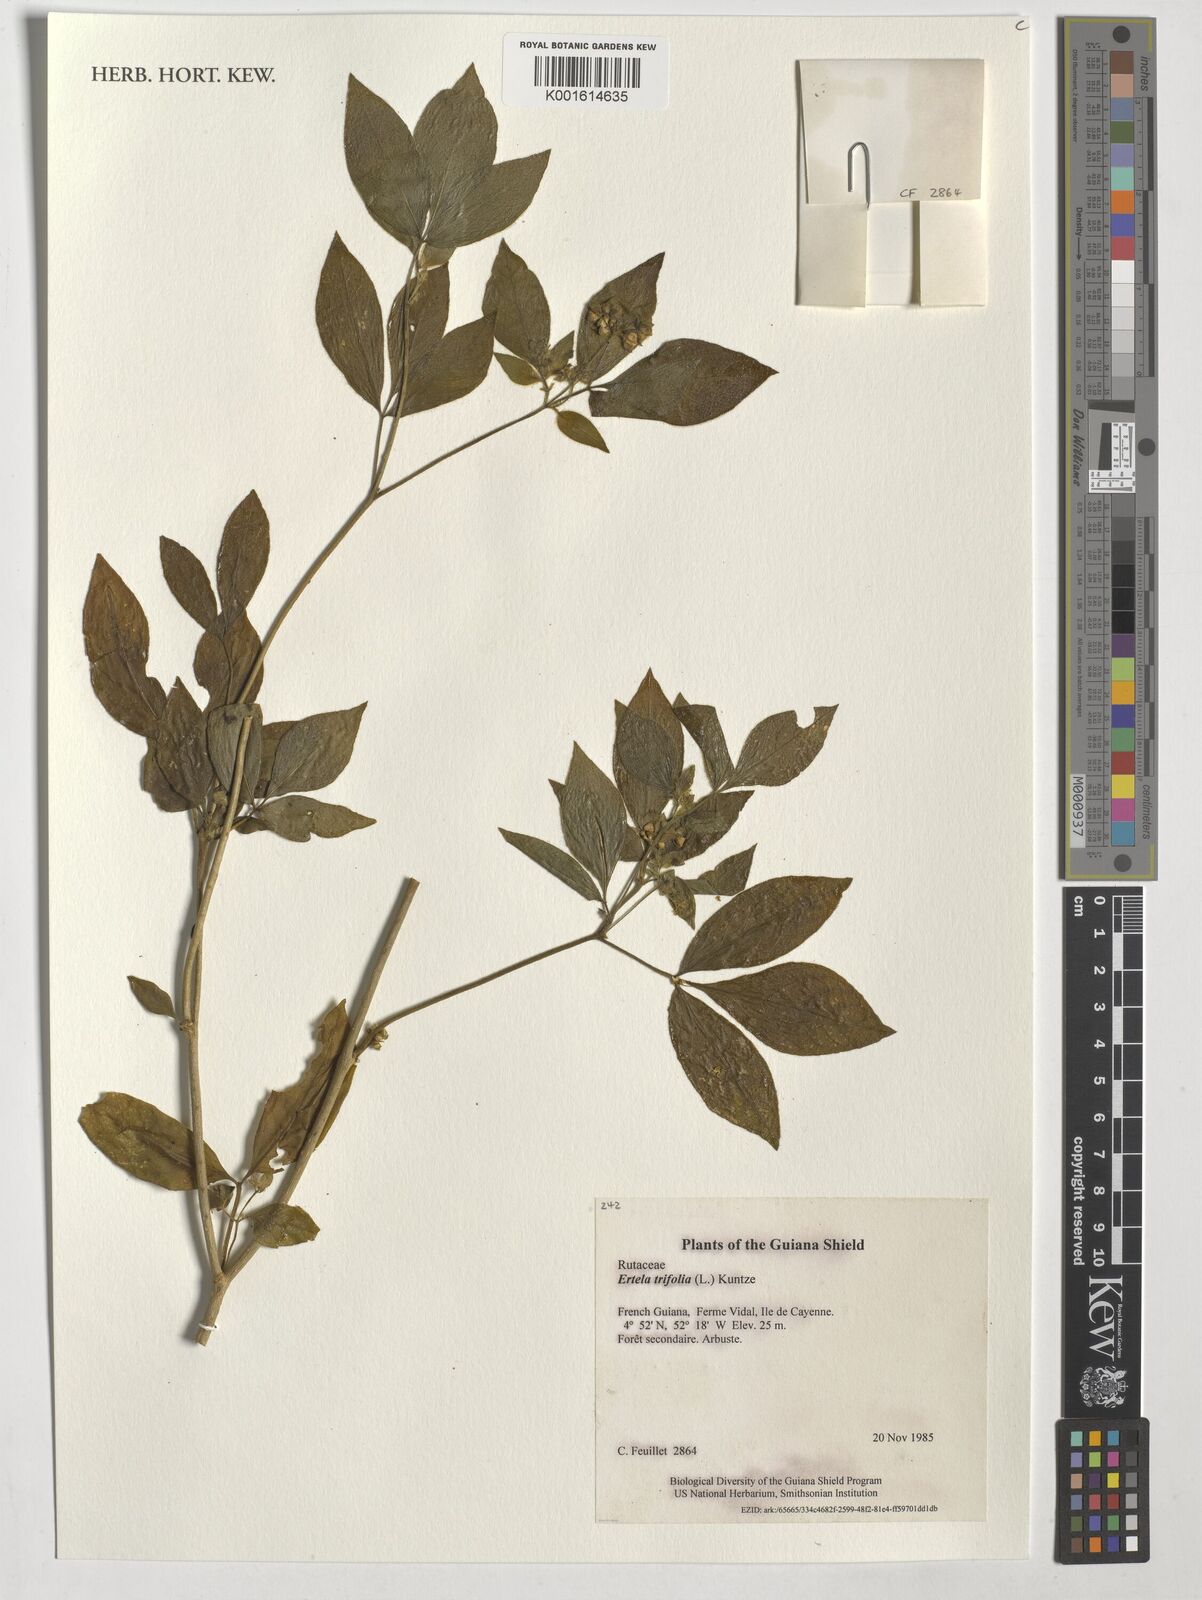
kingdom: Plantae
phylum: Tracheophyta
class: Magnoliopsida
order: Sapindales
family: Rutaceae
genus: Ertela
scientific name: Ertela trifolia
